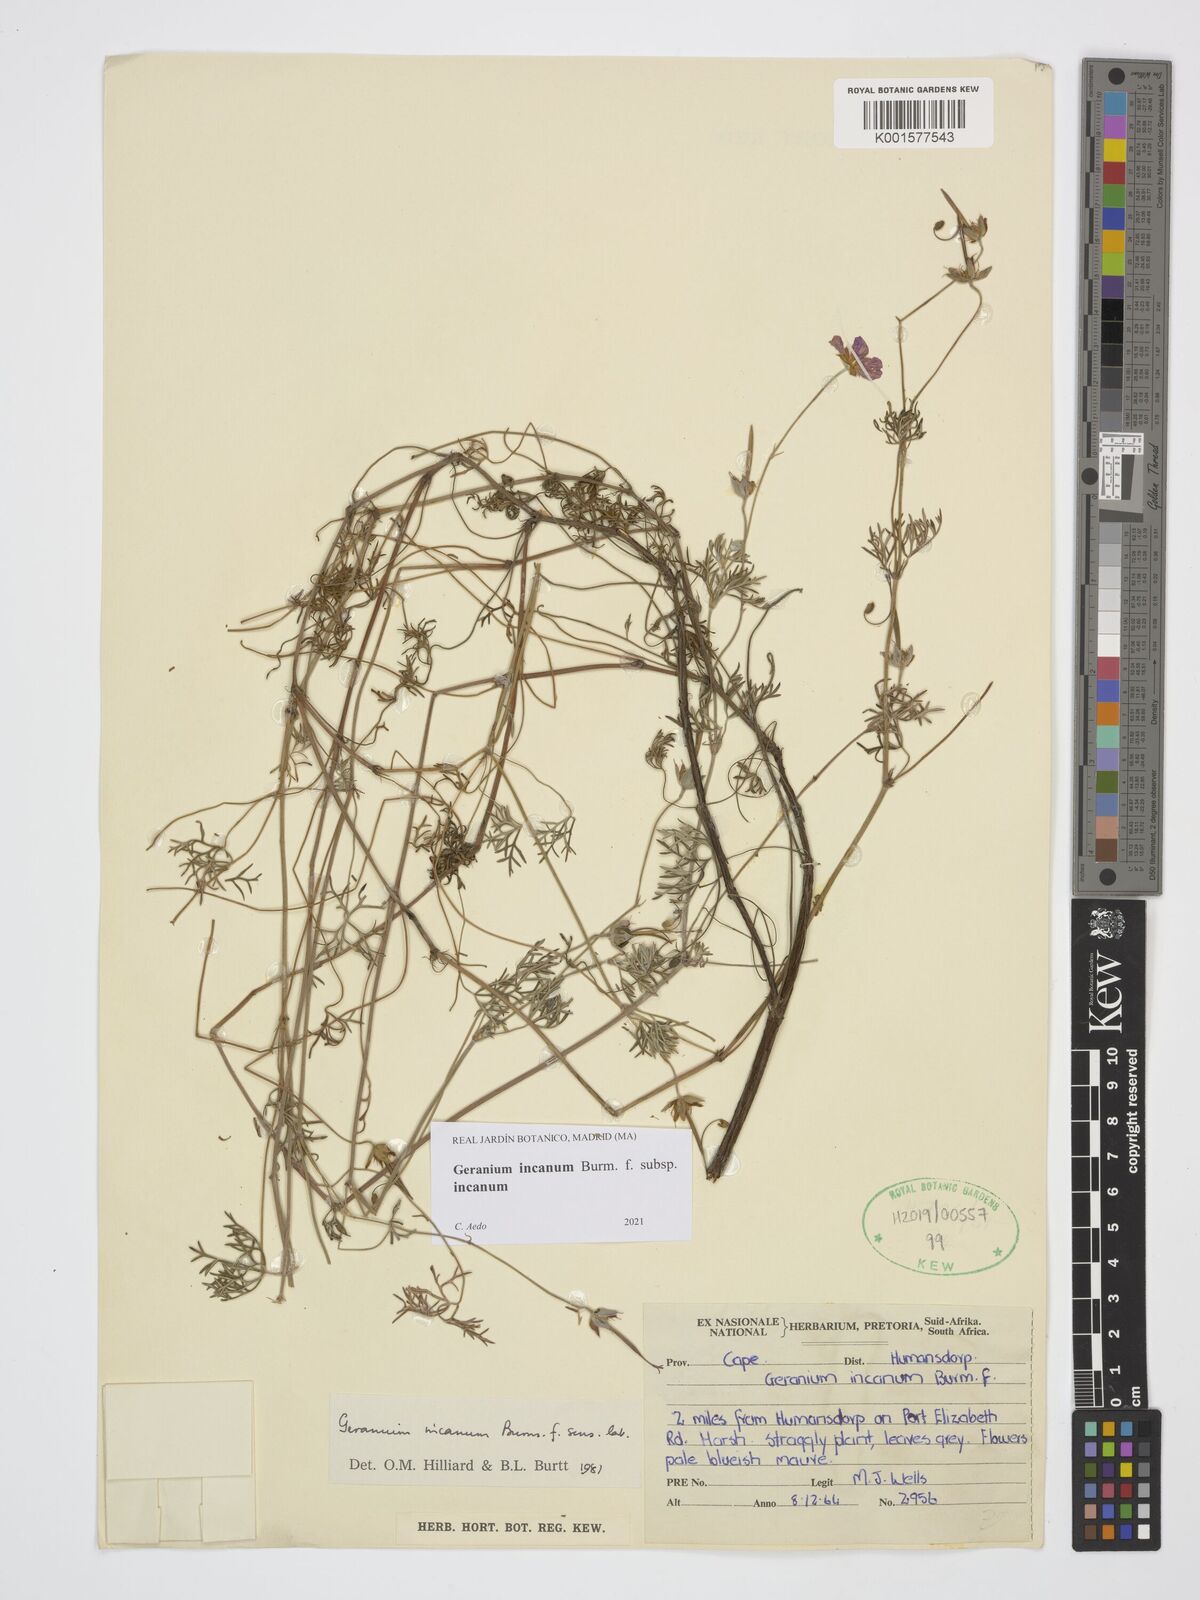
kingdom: Plantae
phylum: Tracheophyta
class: Magnoliopsida
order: Geraniales
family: Geraniaceae
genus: Geranium
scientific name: Geranium incanum
